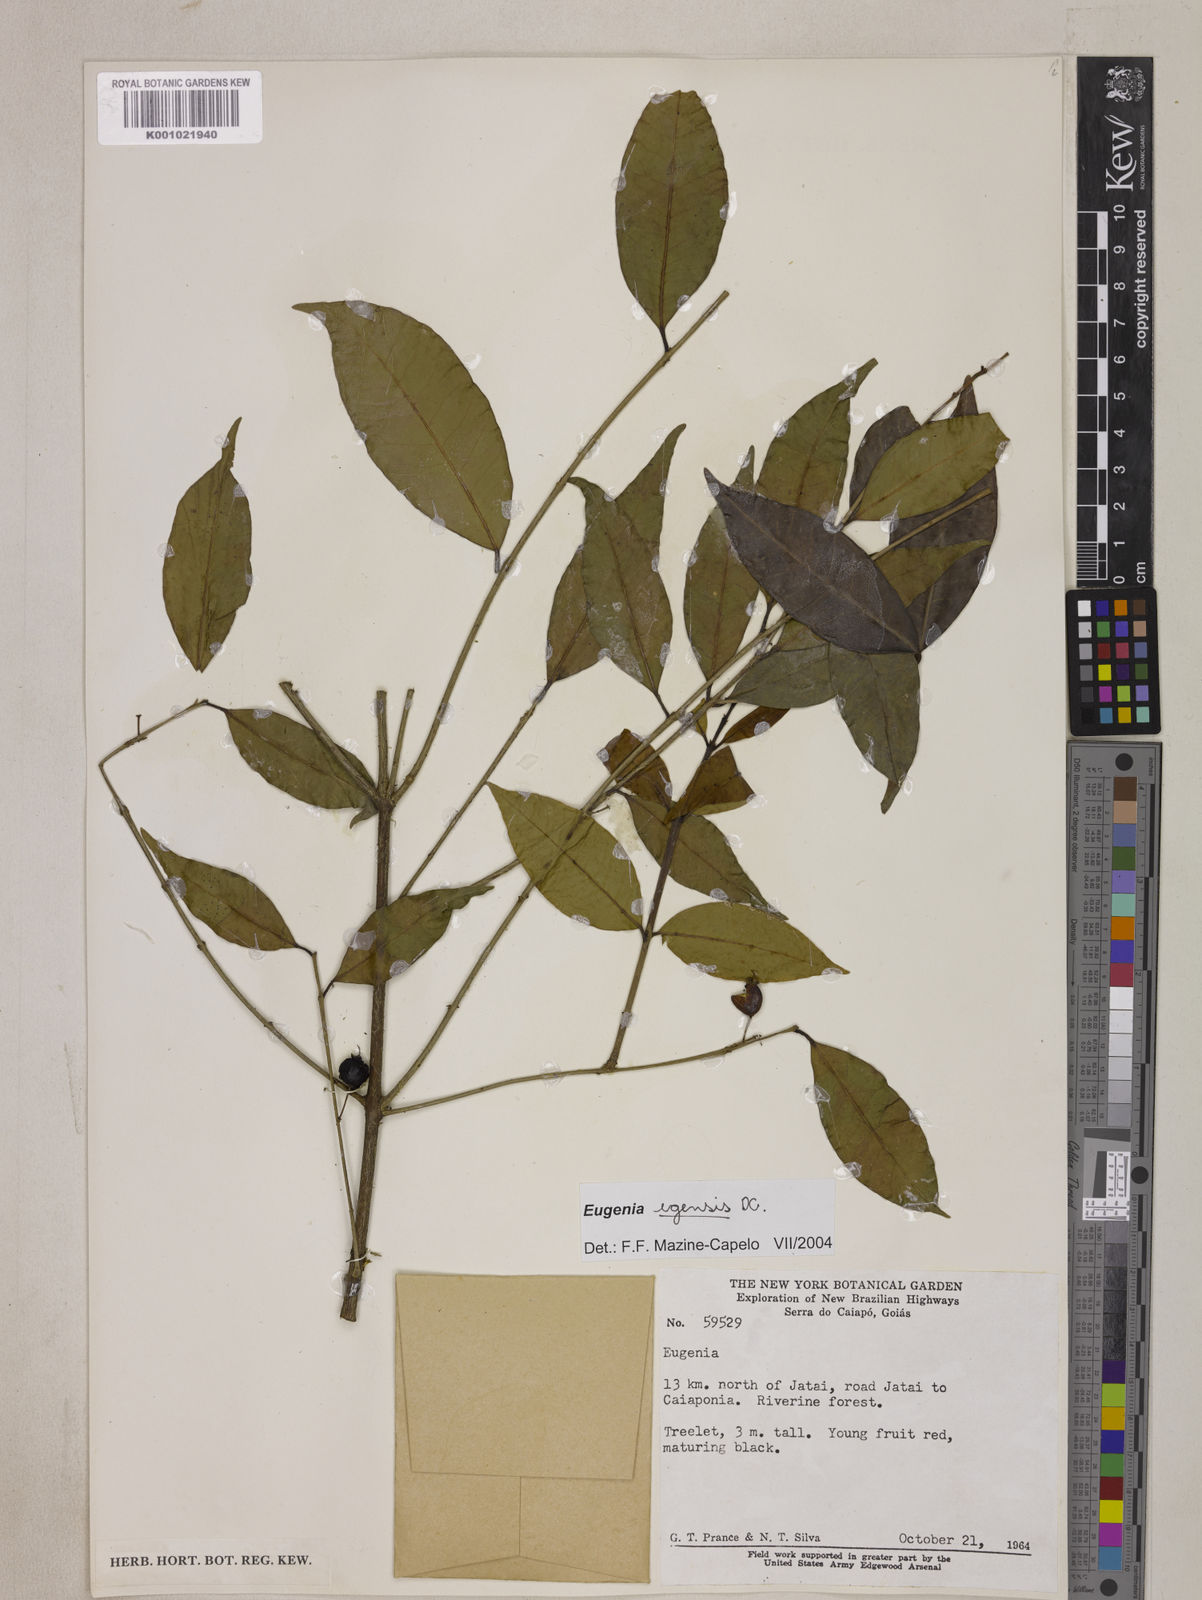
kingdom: Plantae
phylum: Tracheophyta
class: Magnoliopsida
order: Myrtales
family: Myrtaceae
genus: Eugenia
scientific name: Eugenia egensis
